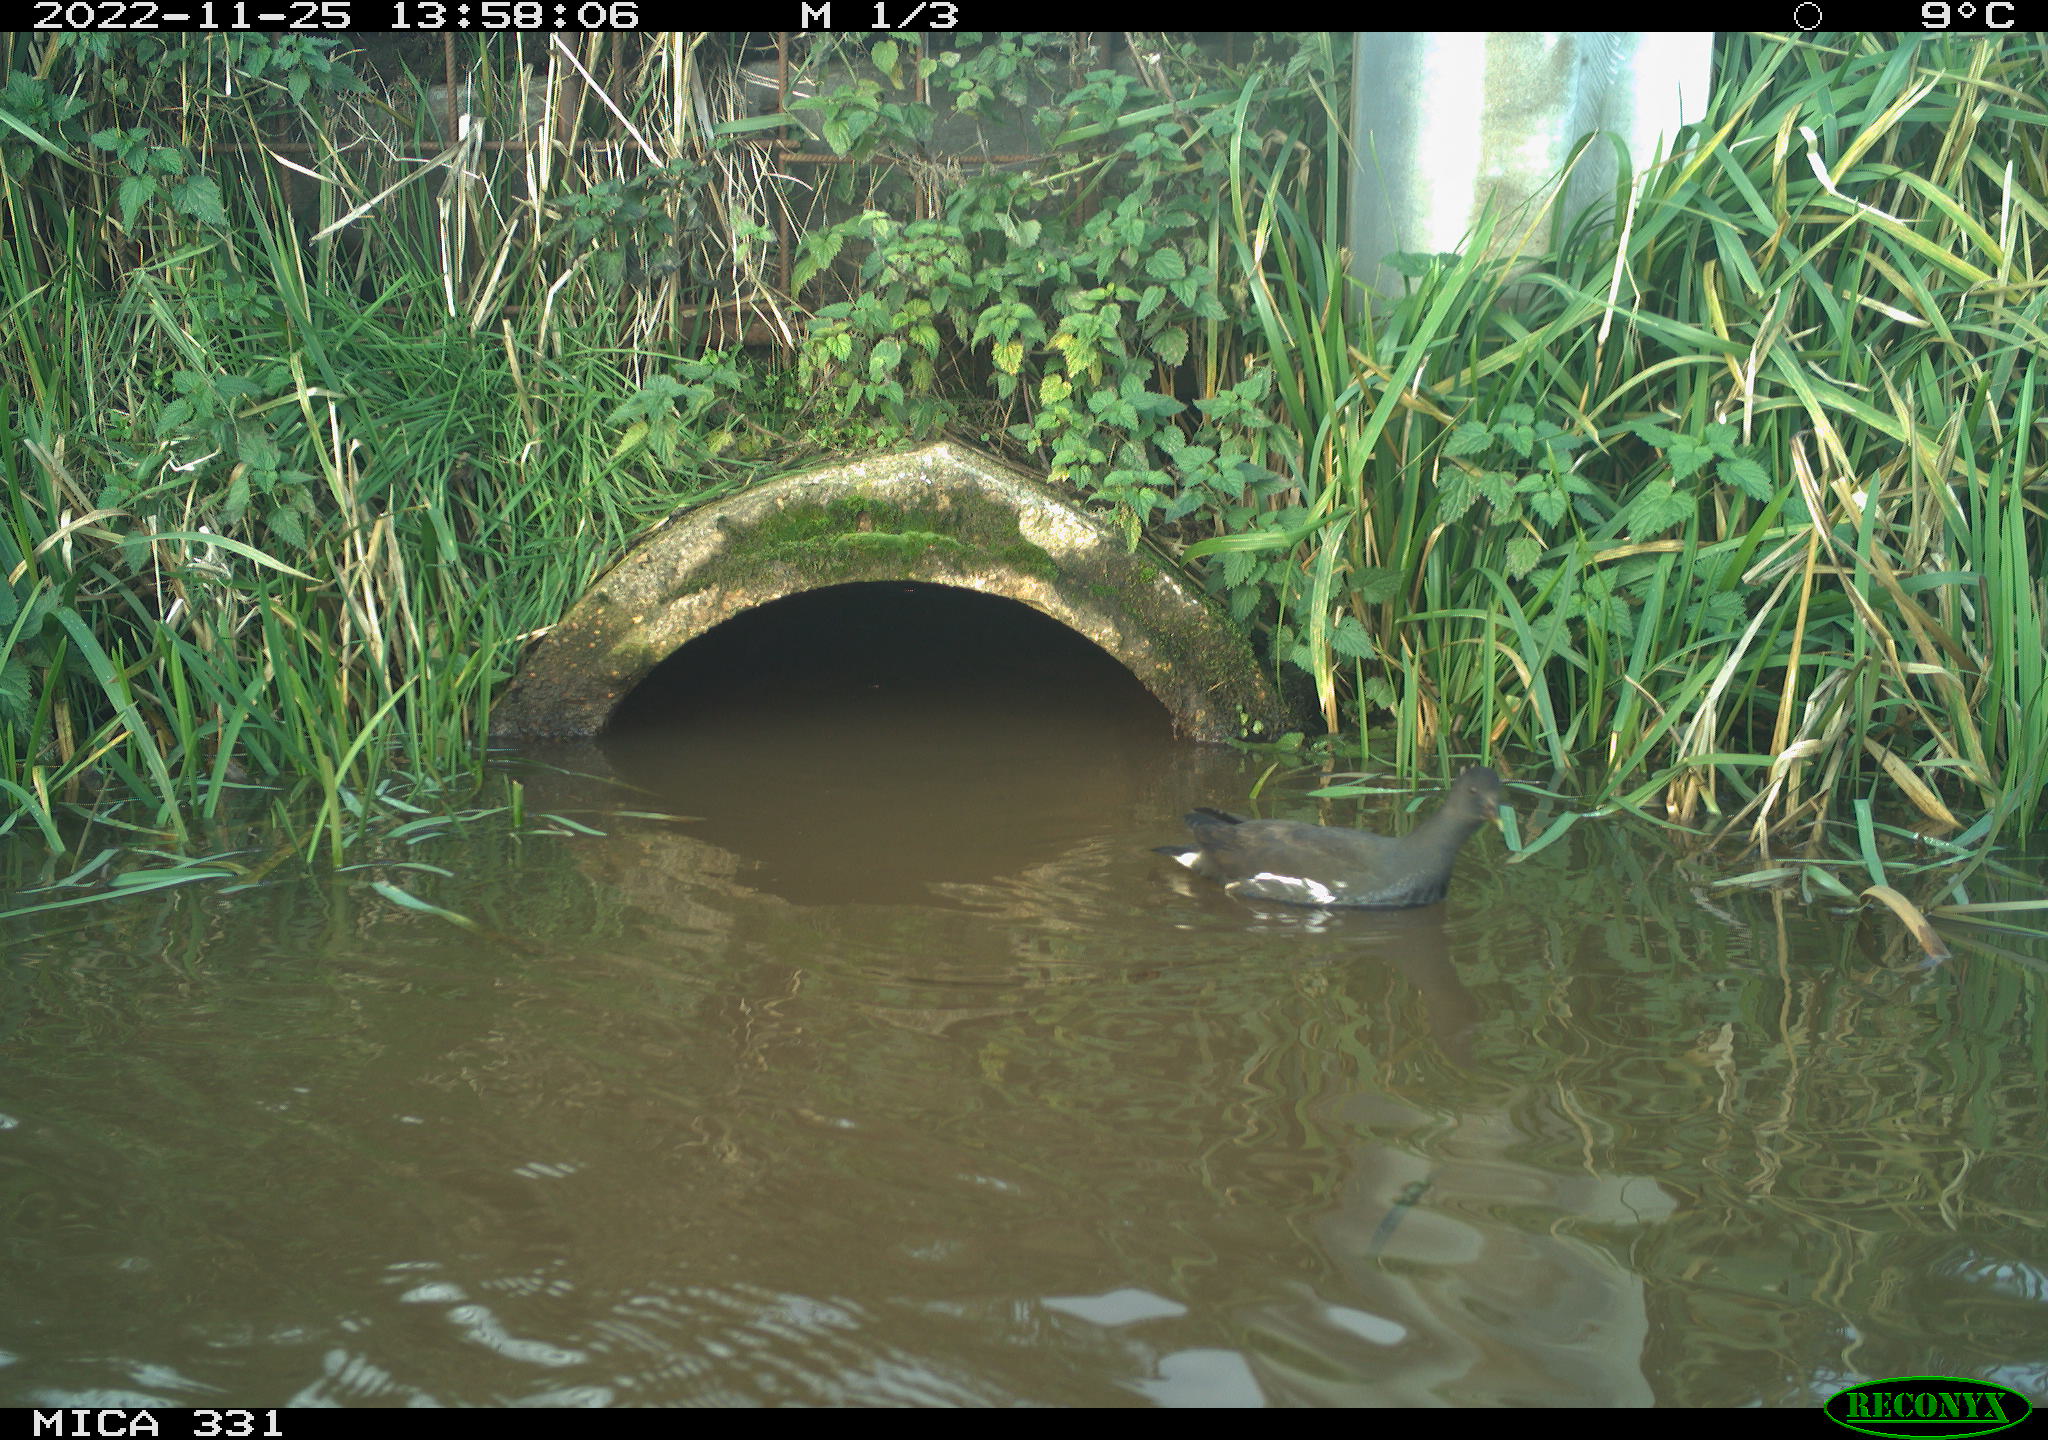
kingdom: Animalia
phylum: Chordata
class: Aves
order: Gruiformes
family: Rallidae
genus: Gallinula
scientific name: Gallinula chloropus
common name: Common moorhen
